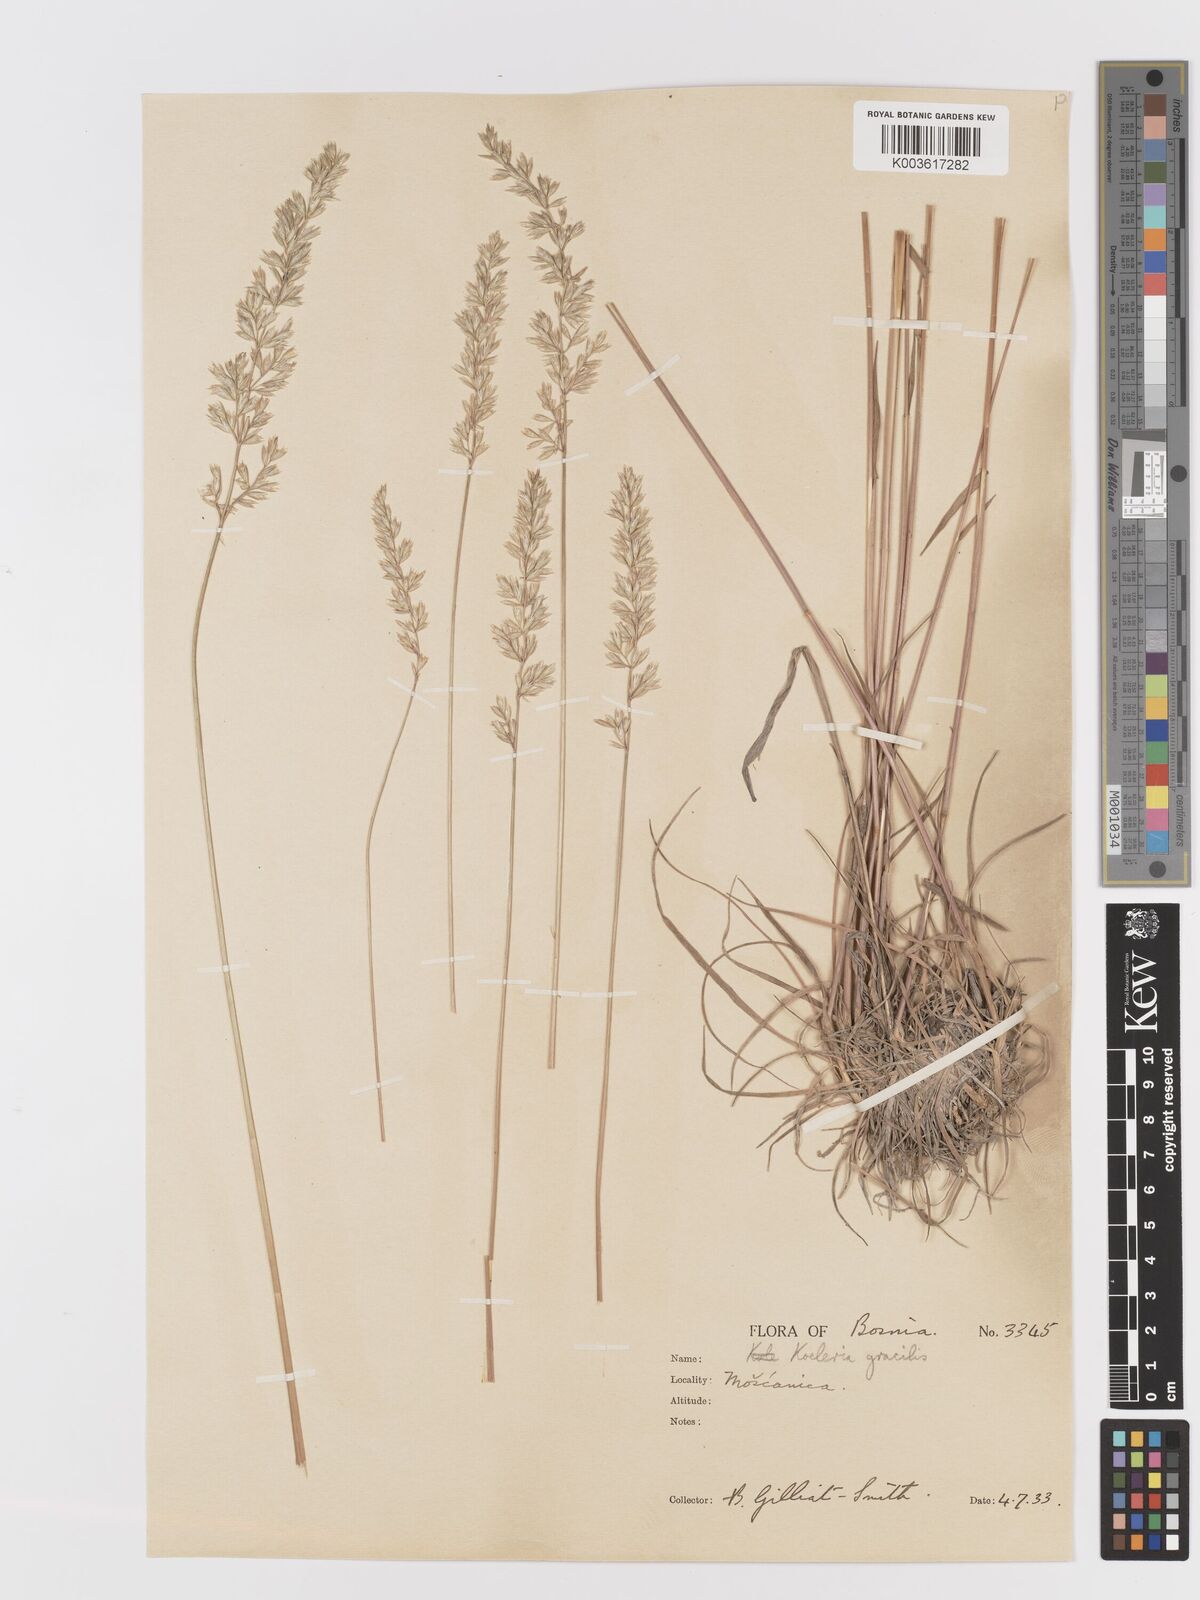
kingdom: Plantae
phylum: Tracheophyta
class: Liliopsida
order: Poales
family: Poaceae
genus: Koeleria
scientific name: Koeleria macrantha
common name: Crested hair-grass
